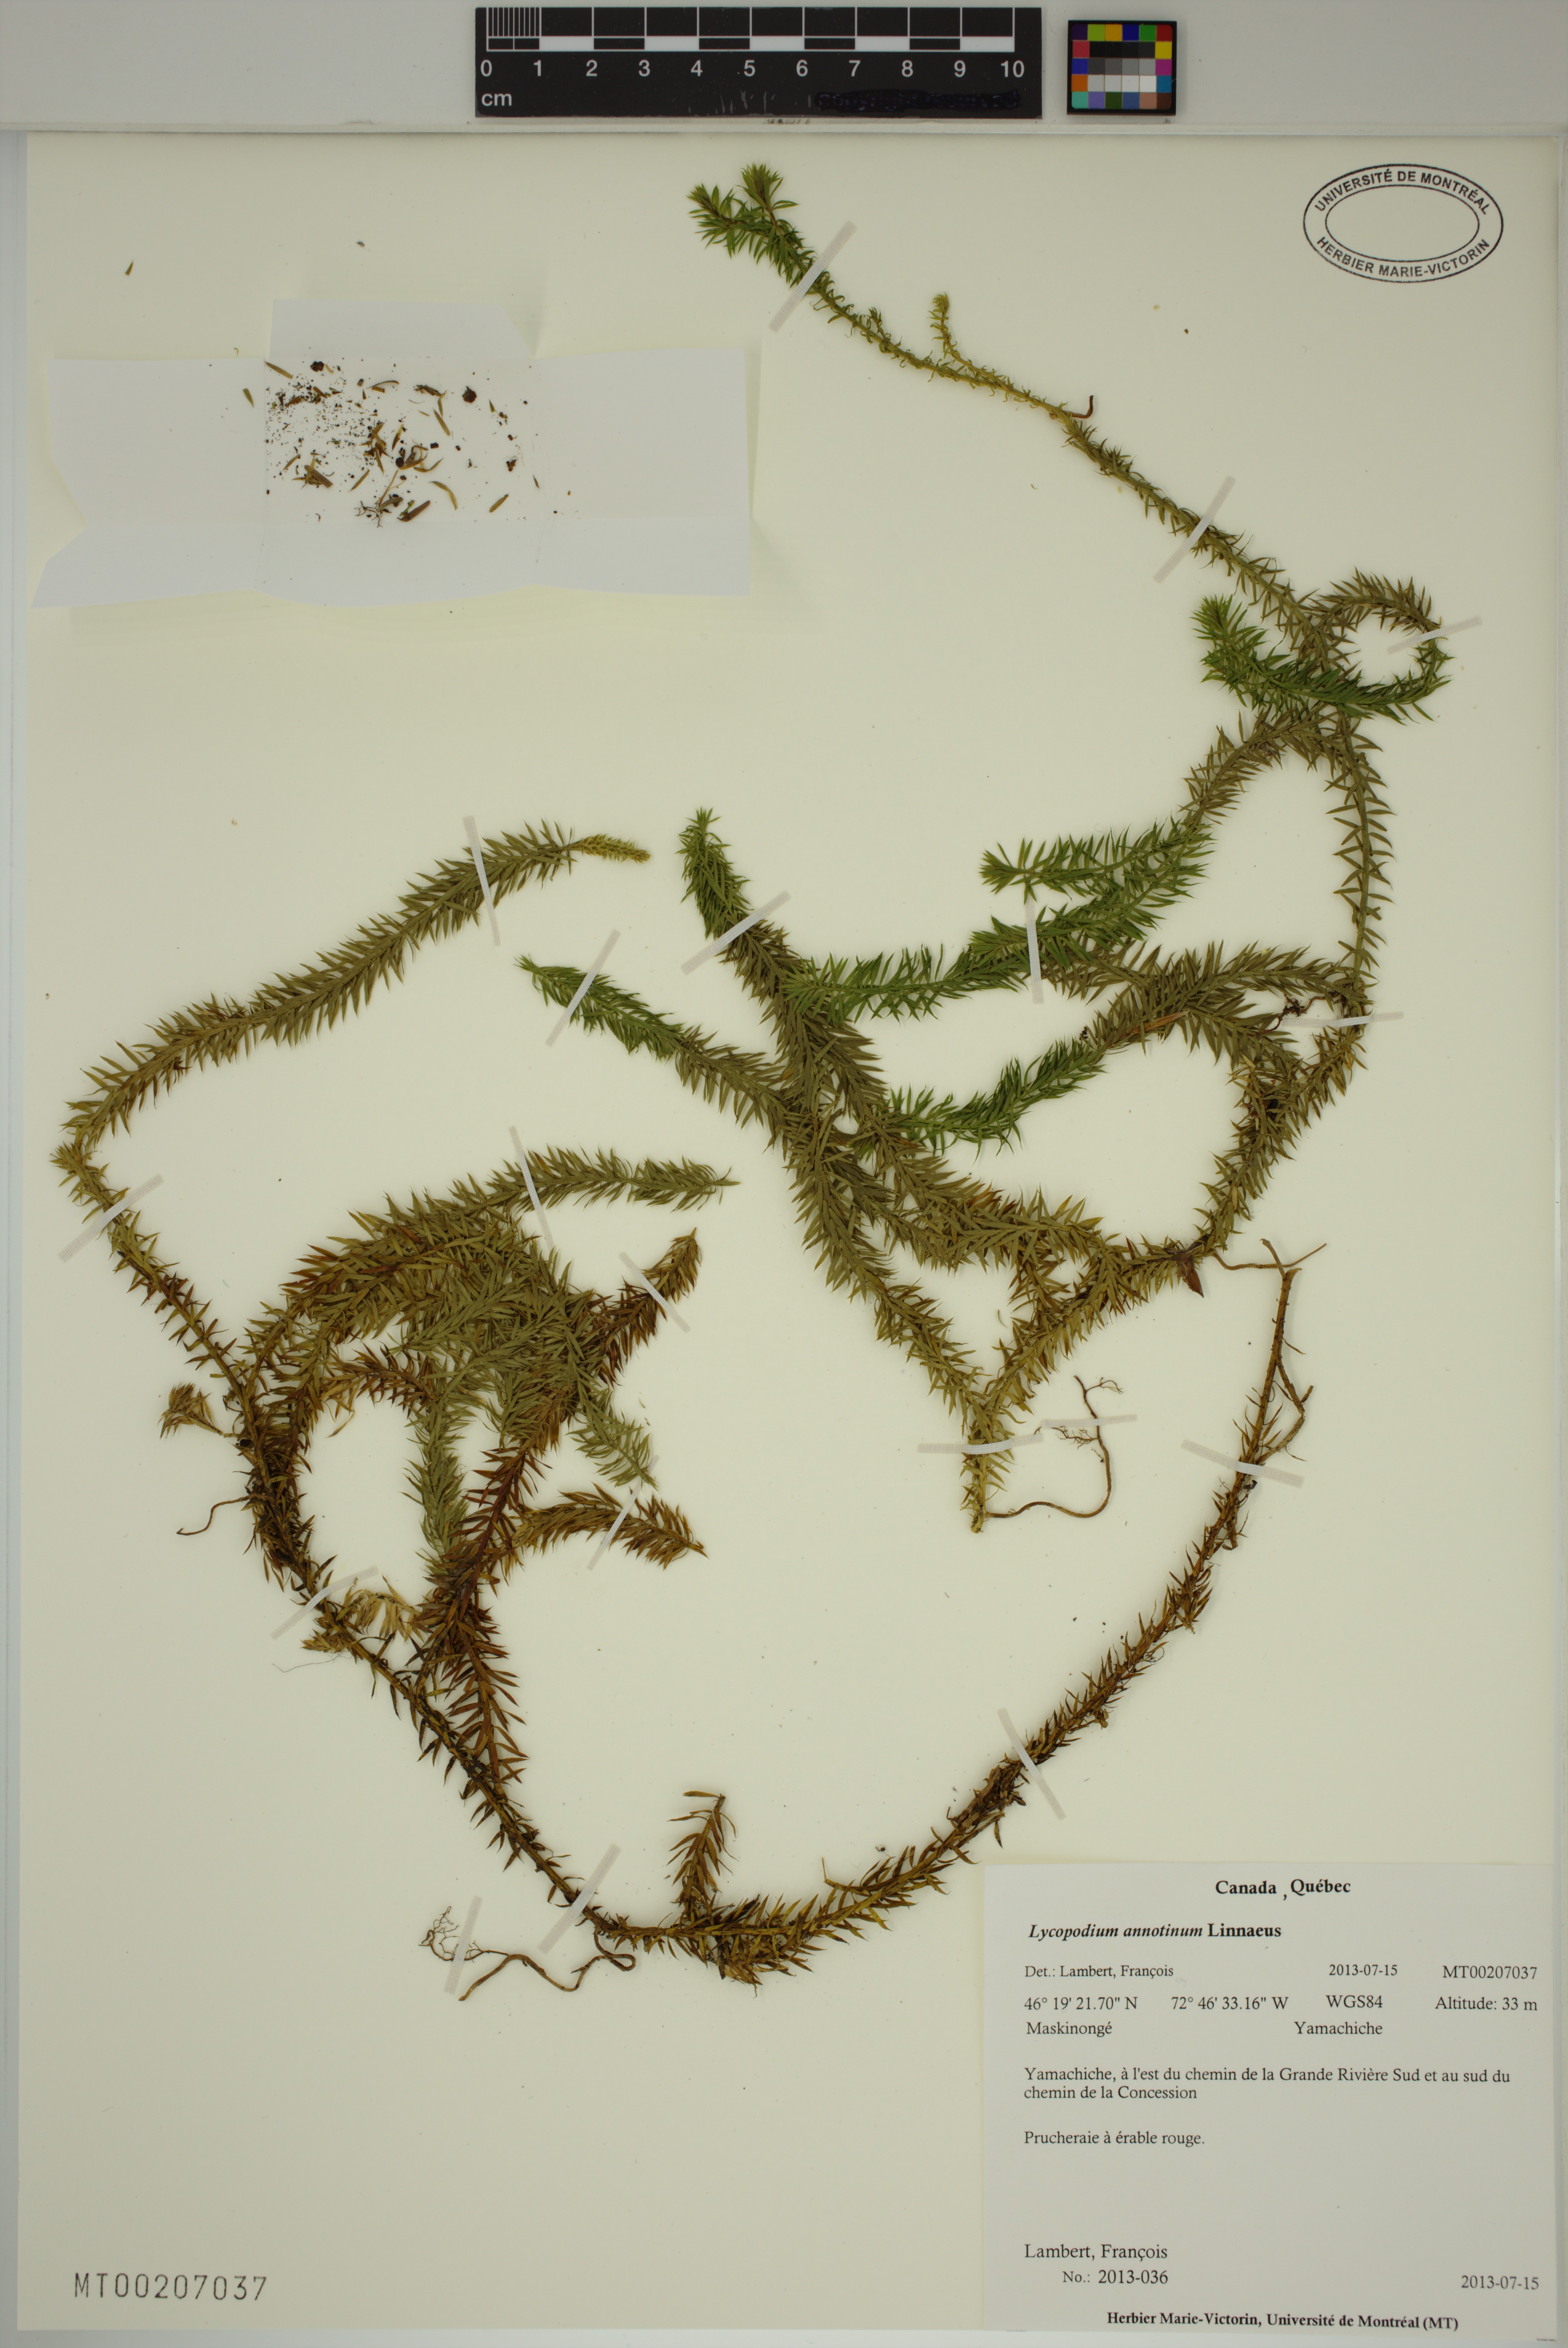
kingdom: Plantae
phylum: Tracheophyta
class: Lycopodiopsida
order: Lycopodiales
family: Lycopodiaceae
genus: Spinulum
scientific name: Spinulum annotinum
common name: Interrupted club-moss
